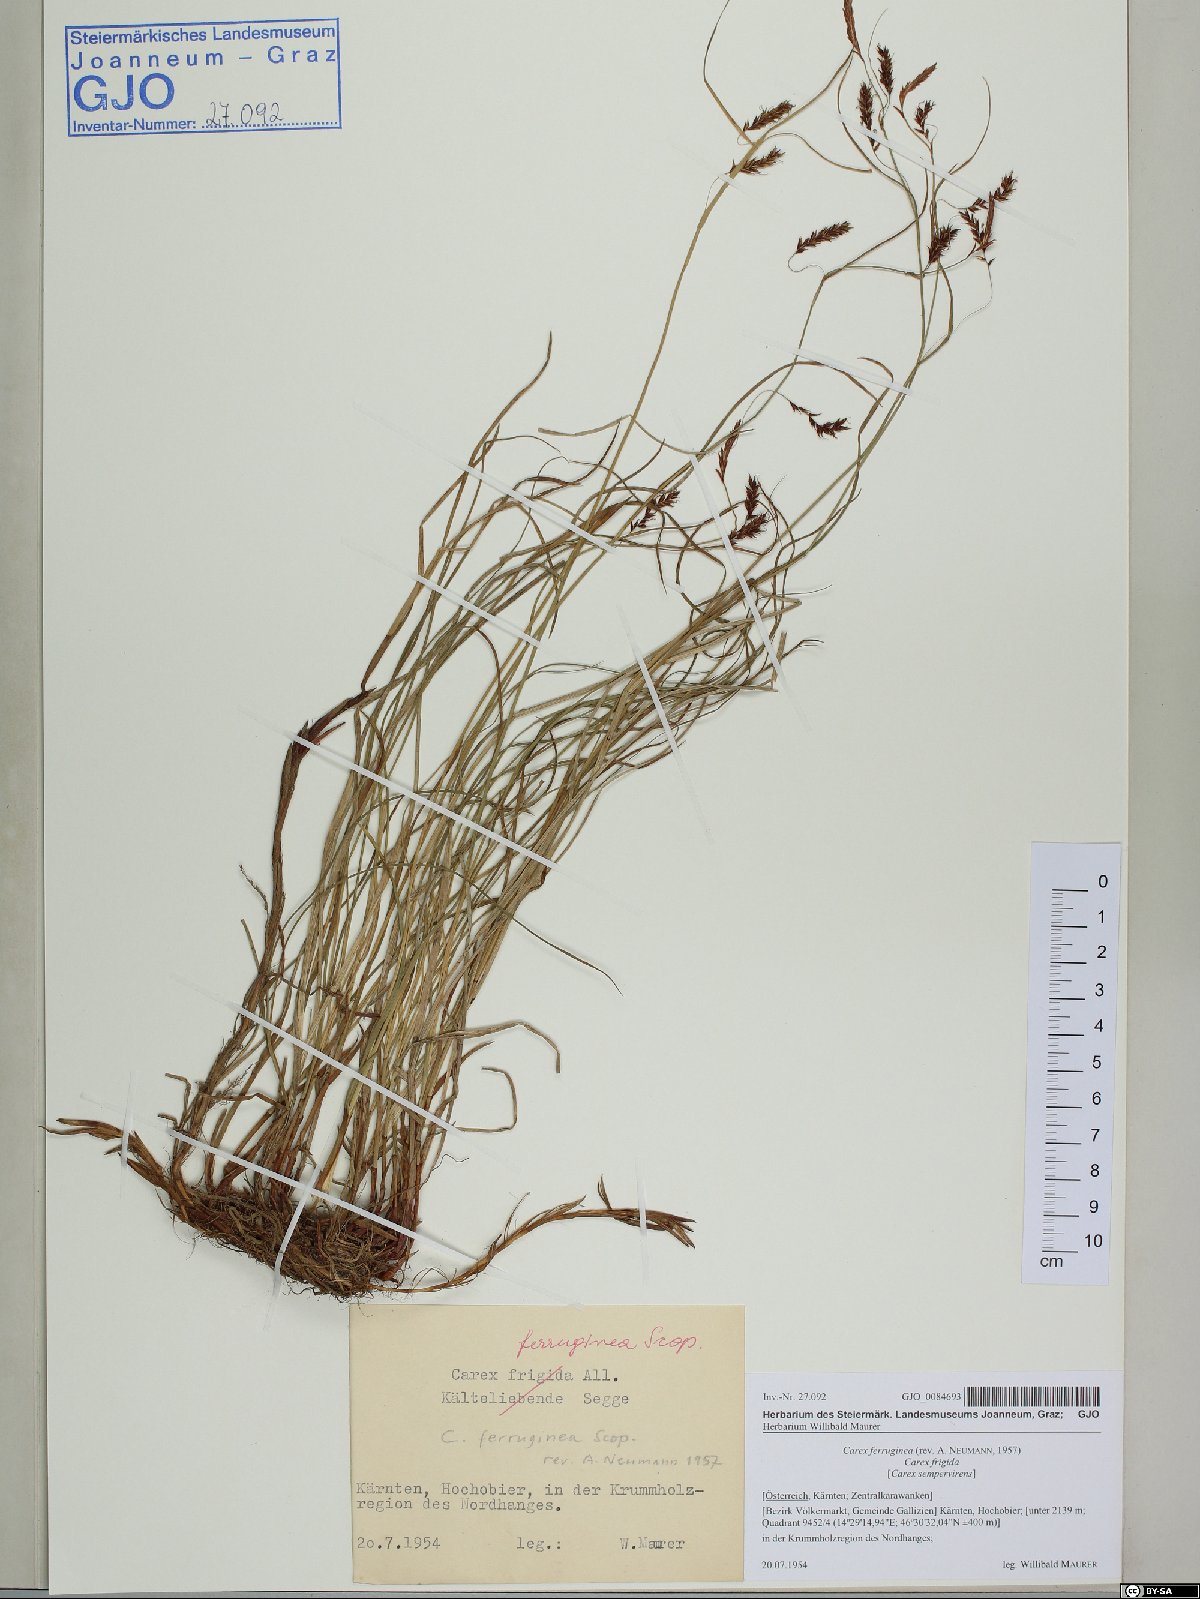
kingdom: Plantae
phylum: Tracheophyta
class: Liliopsida
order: Poales
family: Cyperaceae
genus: Carex
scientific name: Carex ferruginea
